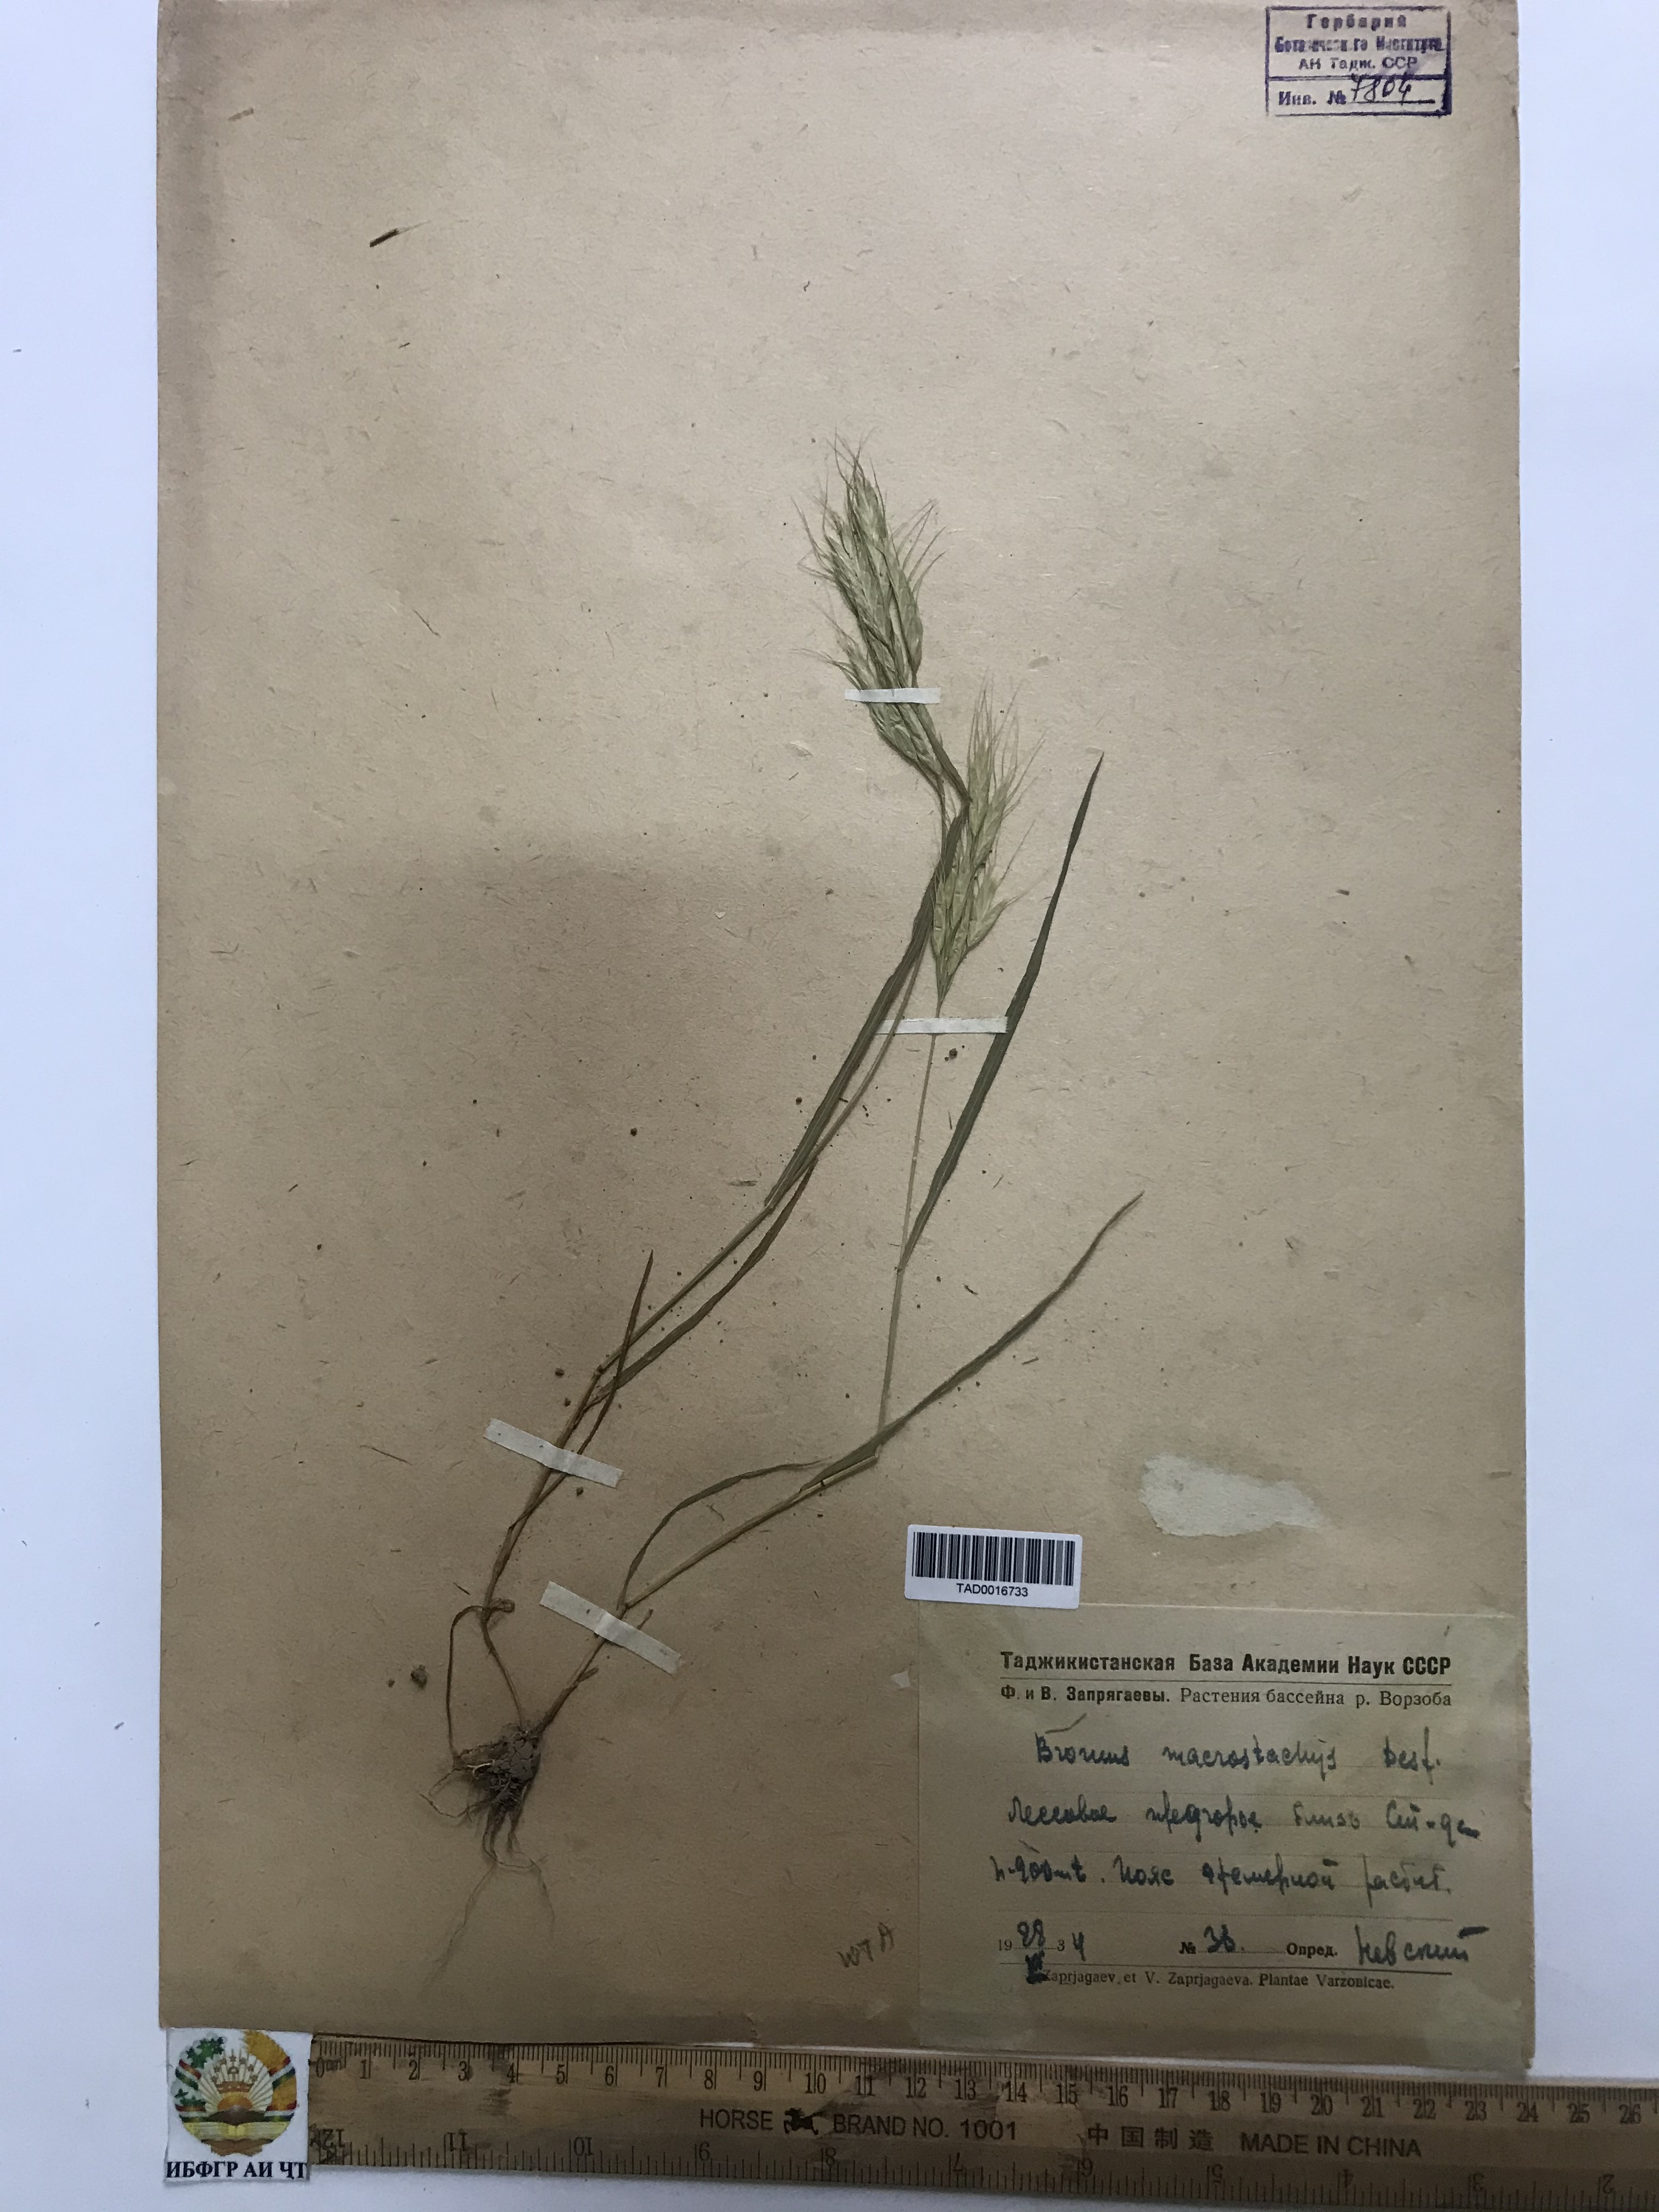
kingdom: Plantae
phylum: Tracheophyta
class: Liliopsida
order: Poales
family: Poaceae
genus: Bromus
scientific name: Bromus lanceolatus
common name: Mediterranean brome
